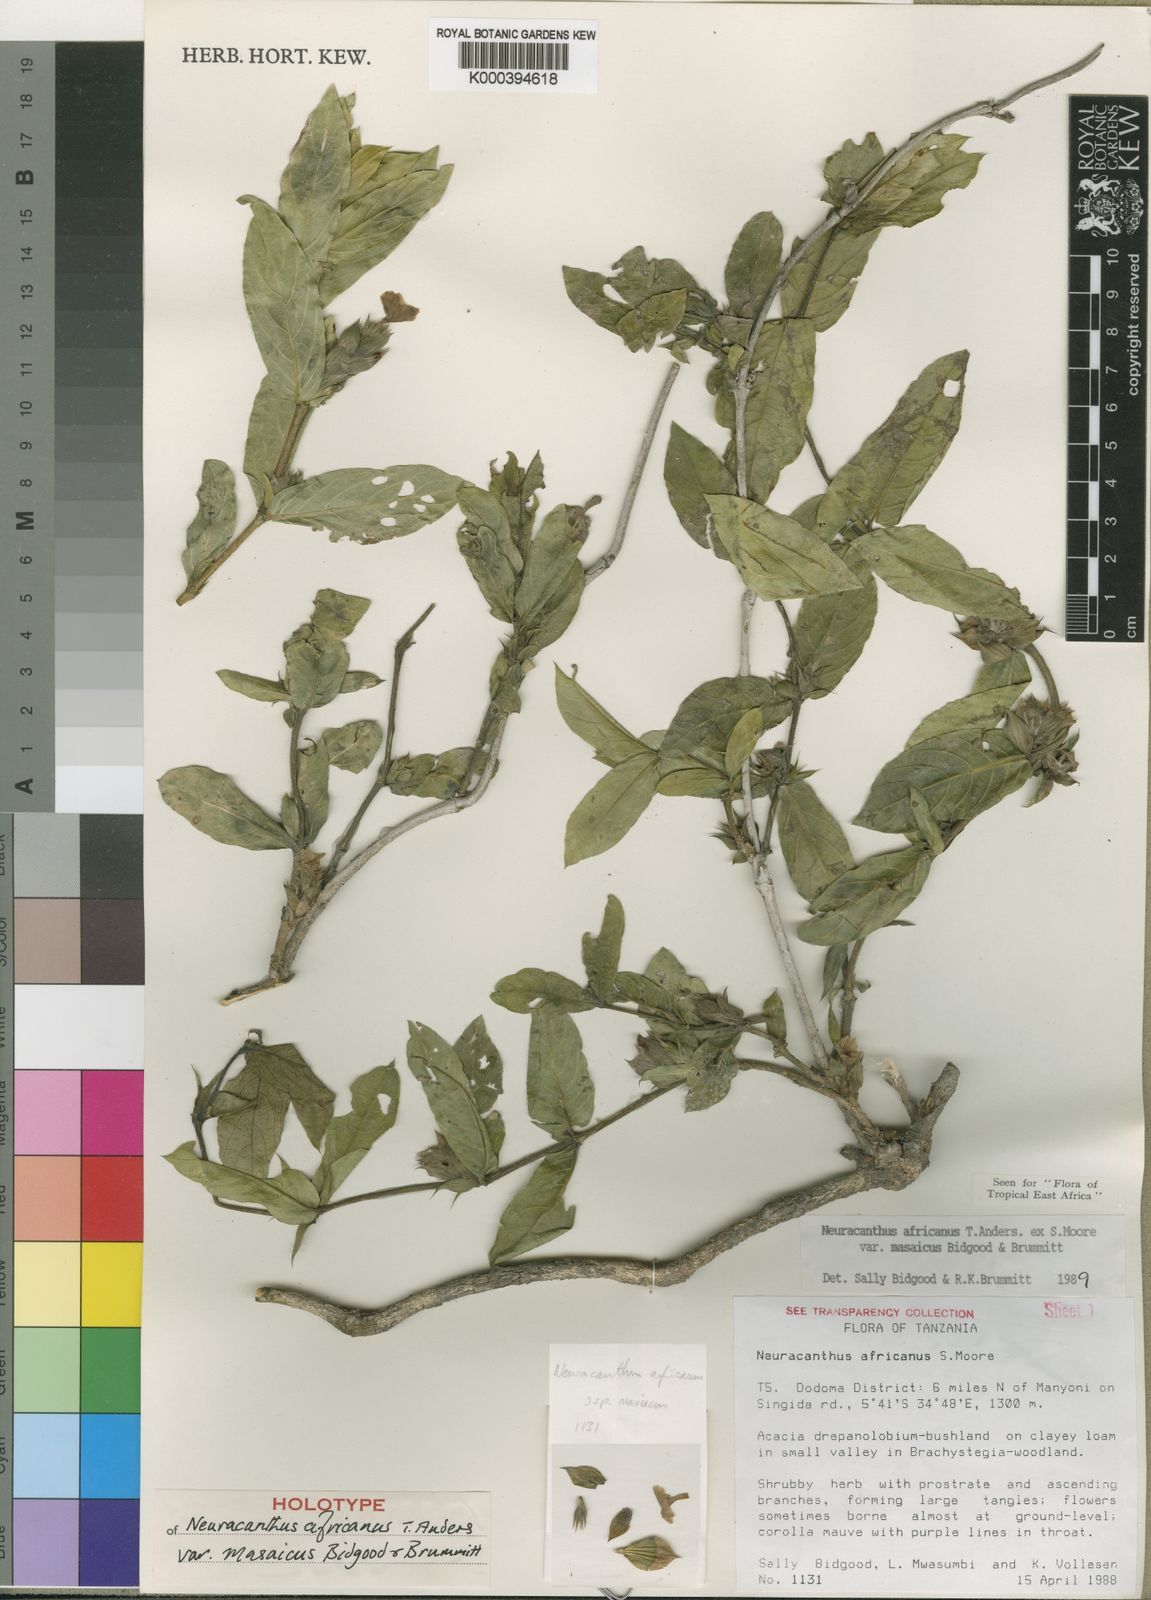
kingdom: Plantae
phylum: Tracheophyta
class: Magnoliopsida
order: Lamiales
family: Acanthaceae
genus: Neuracanthus
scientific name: Neuracanthus africanus
